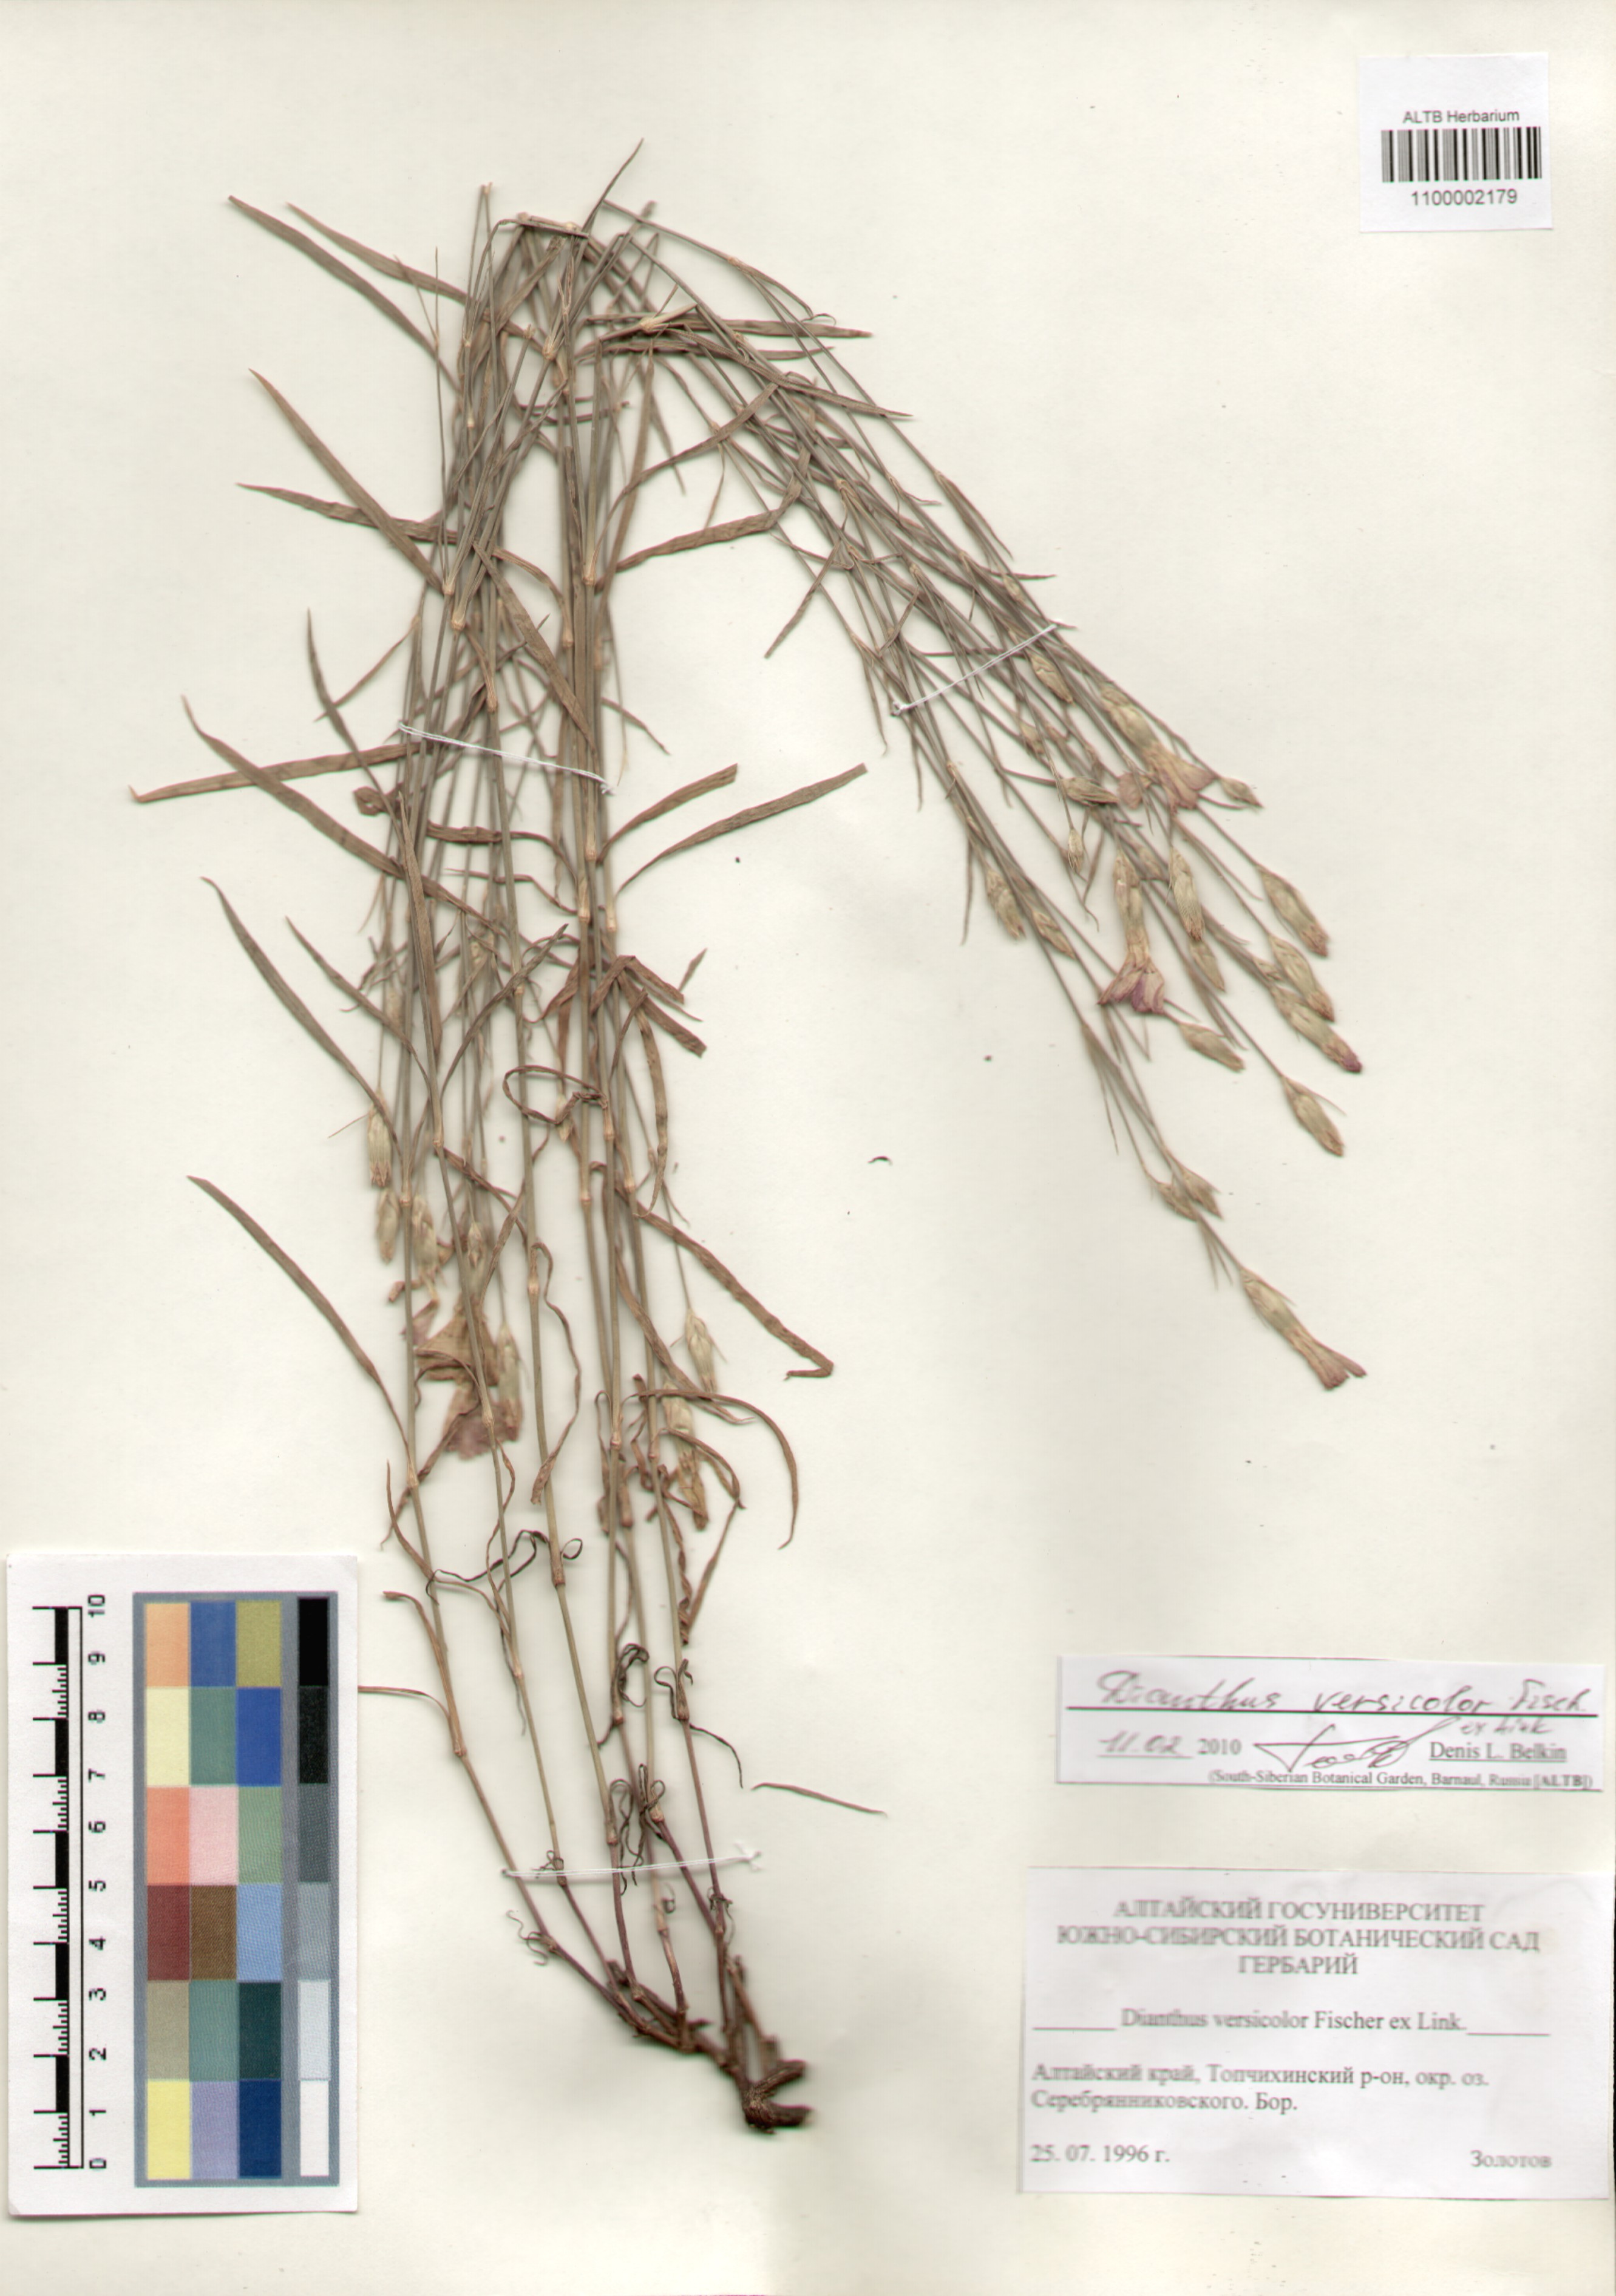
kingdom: Plantae
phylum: Tracheophyta
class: Magnoliopsida
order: Caryophyllales
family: Caryophyllaceae
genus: Dianthus
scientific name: Dianthus chinensis
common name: Rainbow pink
